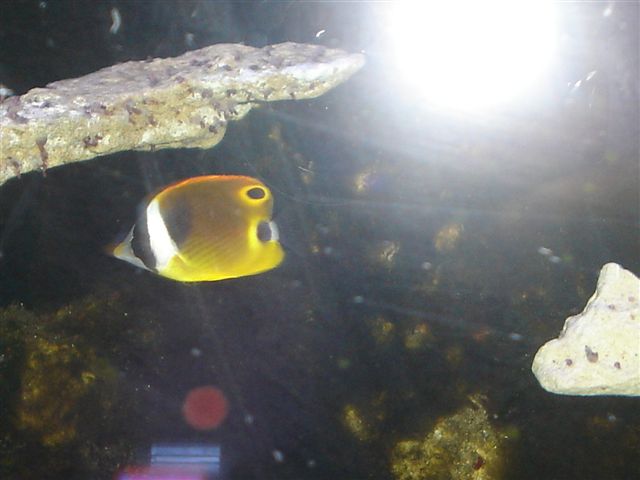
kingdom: Animalia
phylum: Chordata
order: Perciformes
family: Chaetodontidae
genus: Chaetodon
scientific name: Chaetodon lunula
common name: Raccoon butterflyfish
